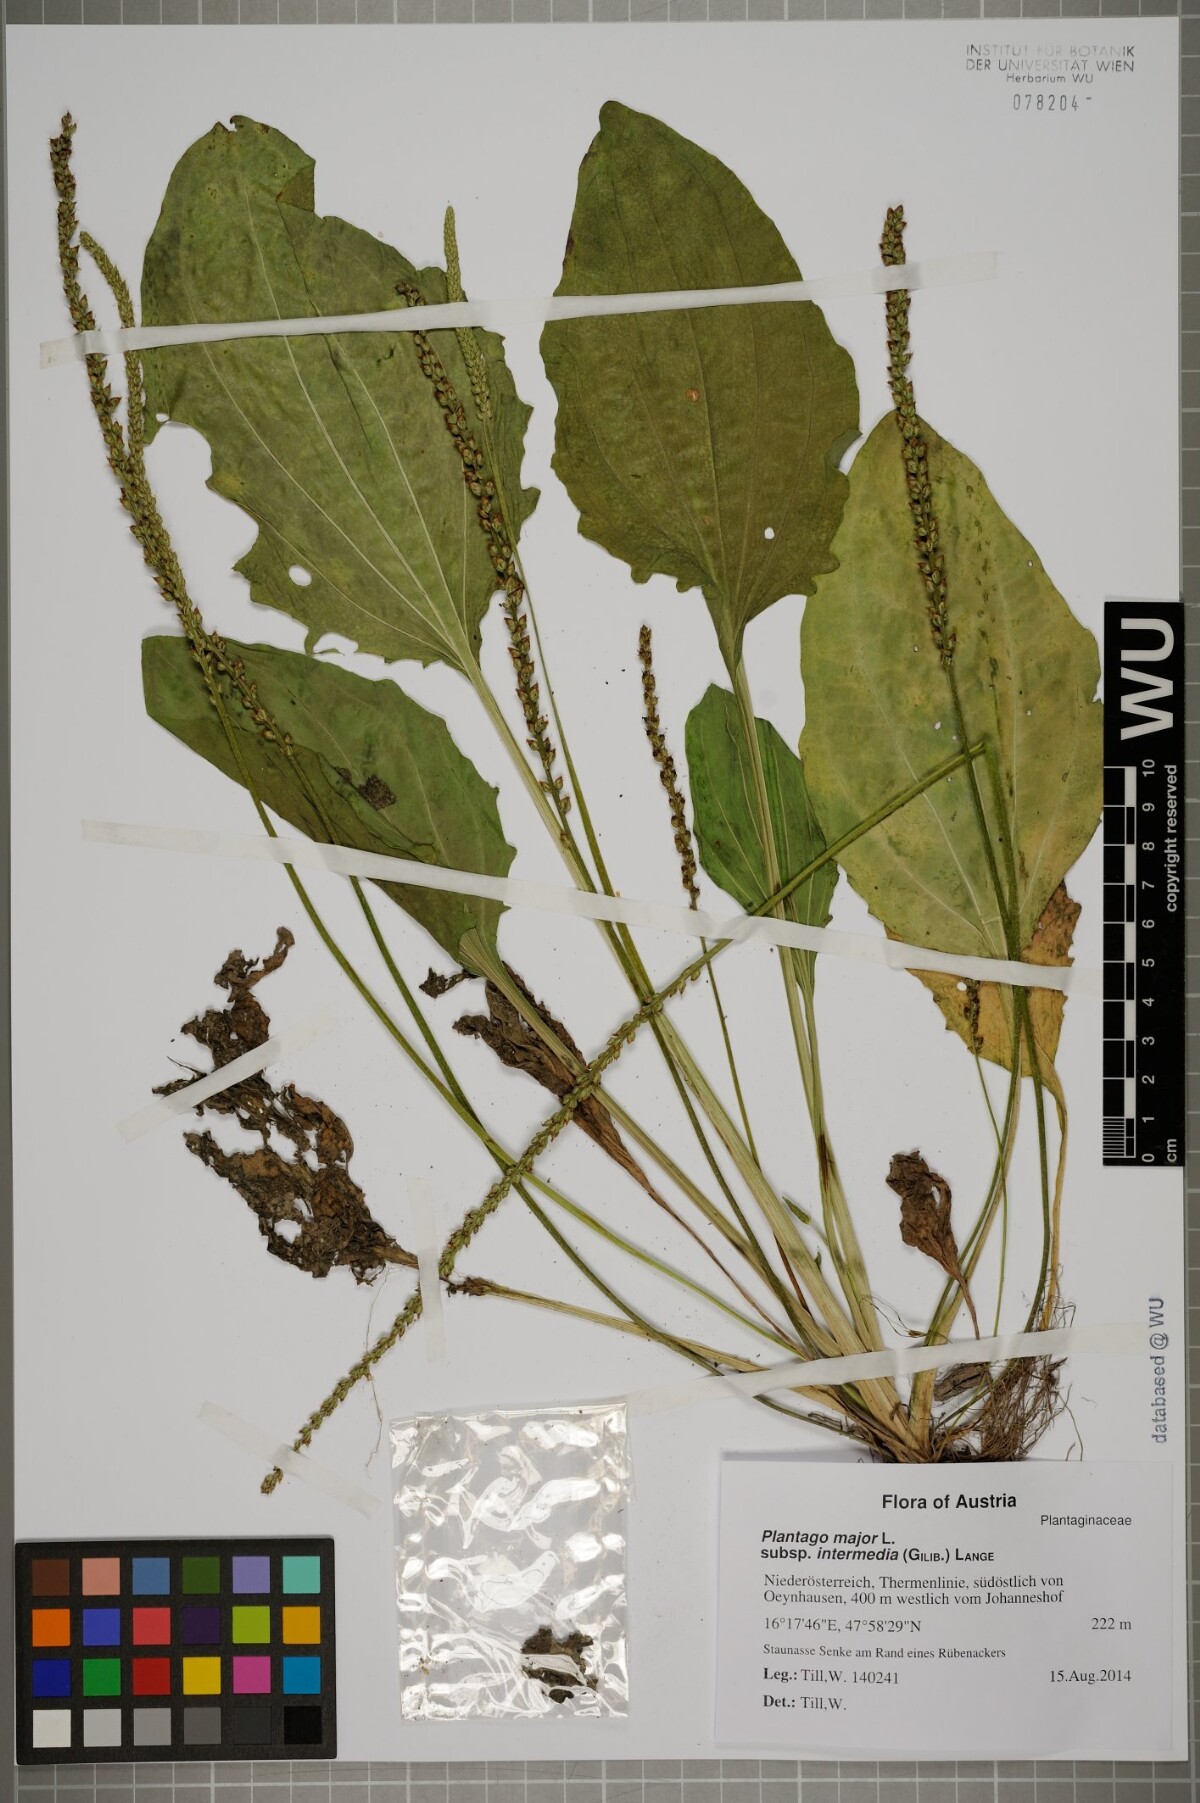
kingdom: Plantae
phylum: Tracheophyta
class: Magnoliopsida
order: Lamiales
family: Plantaginaceae
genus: Plantago
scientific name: Plantago uliginosa
